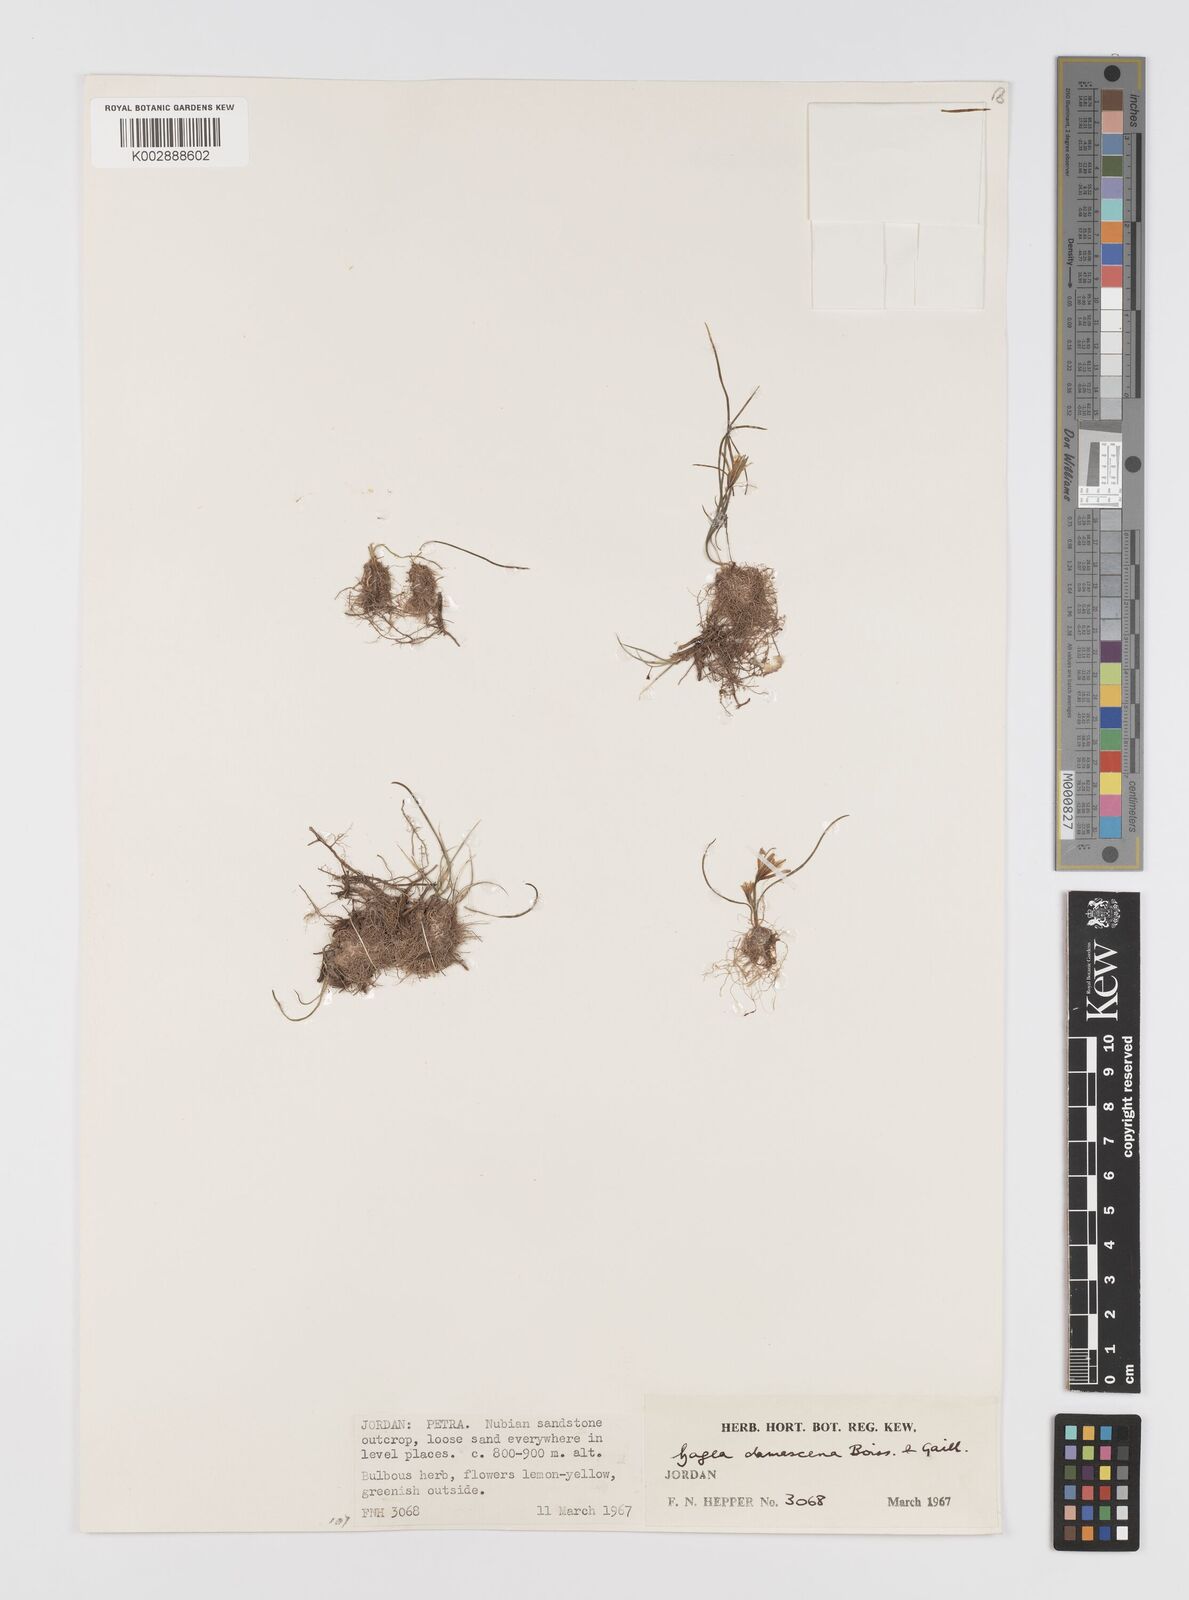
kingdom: Plantae
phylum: Tracheophyta
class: Liliopsida
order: Liliales
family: Liliaceae
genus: Gagea
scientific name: Gagea chlorantha
